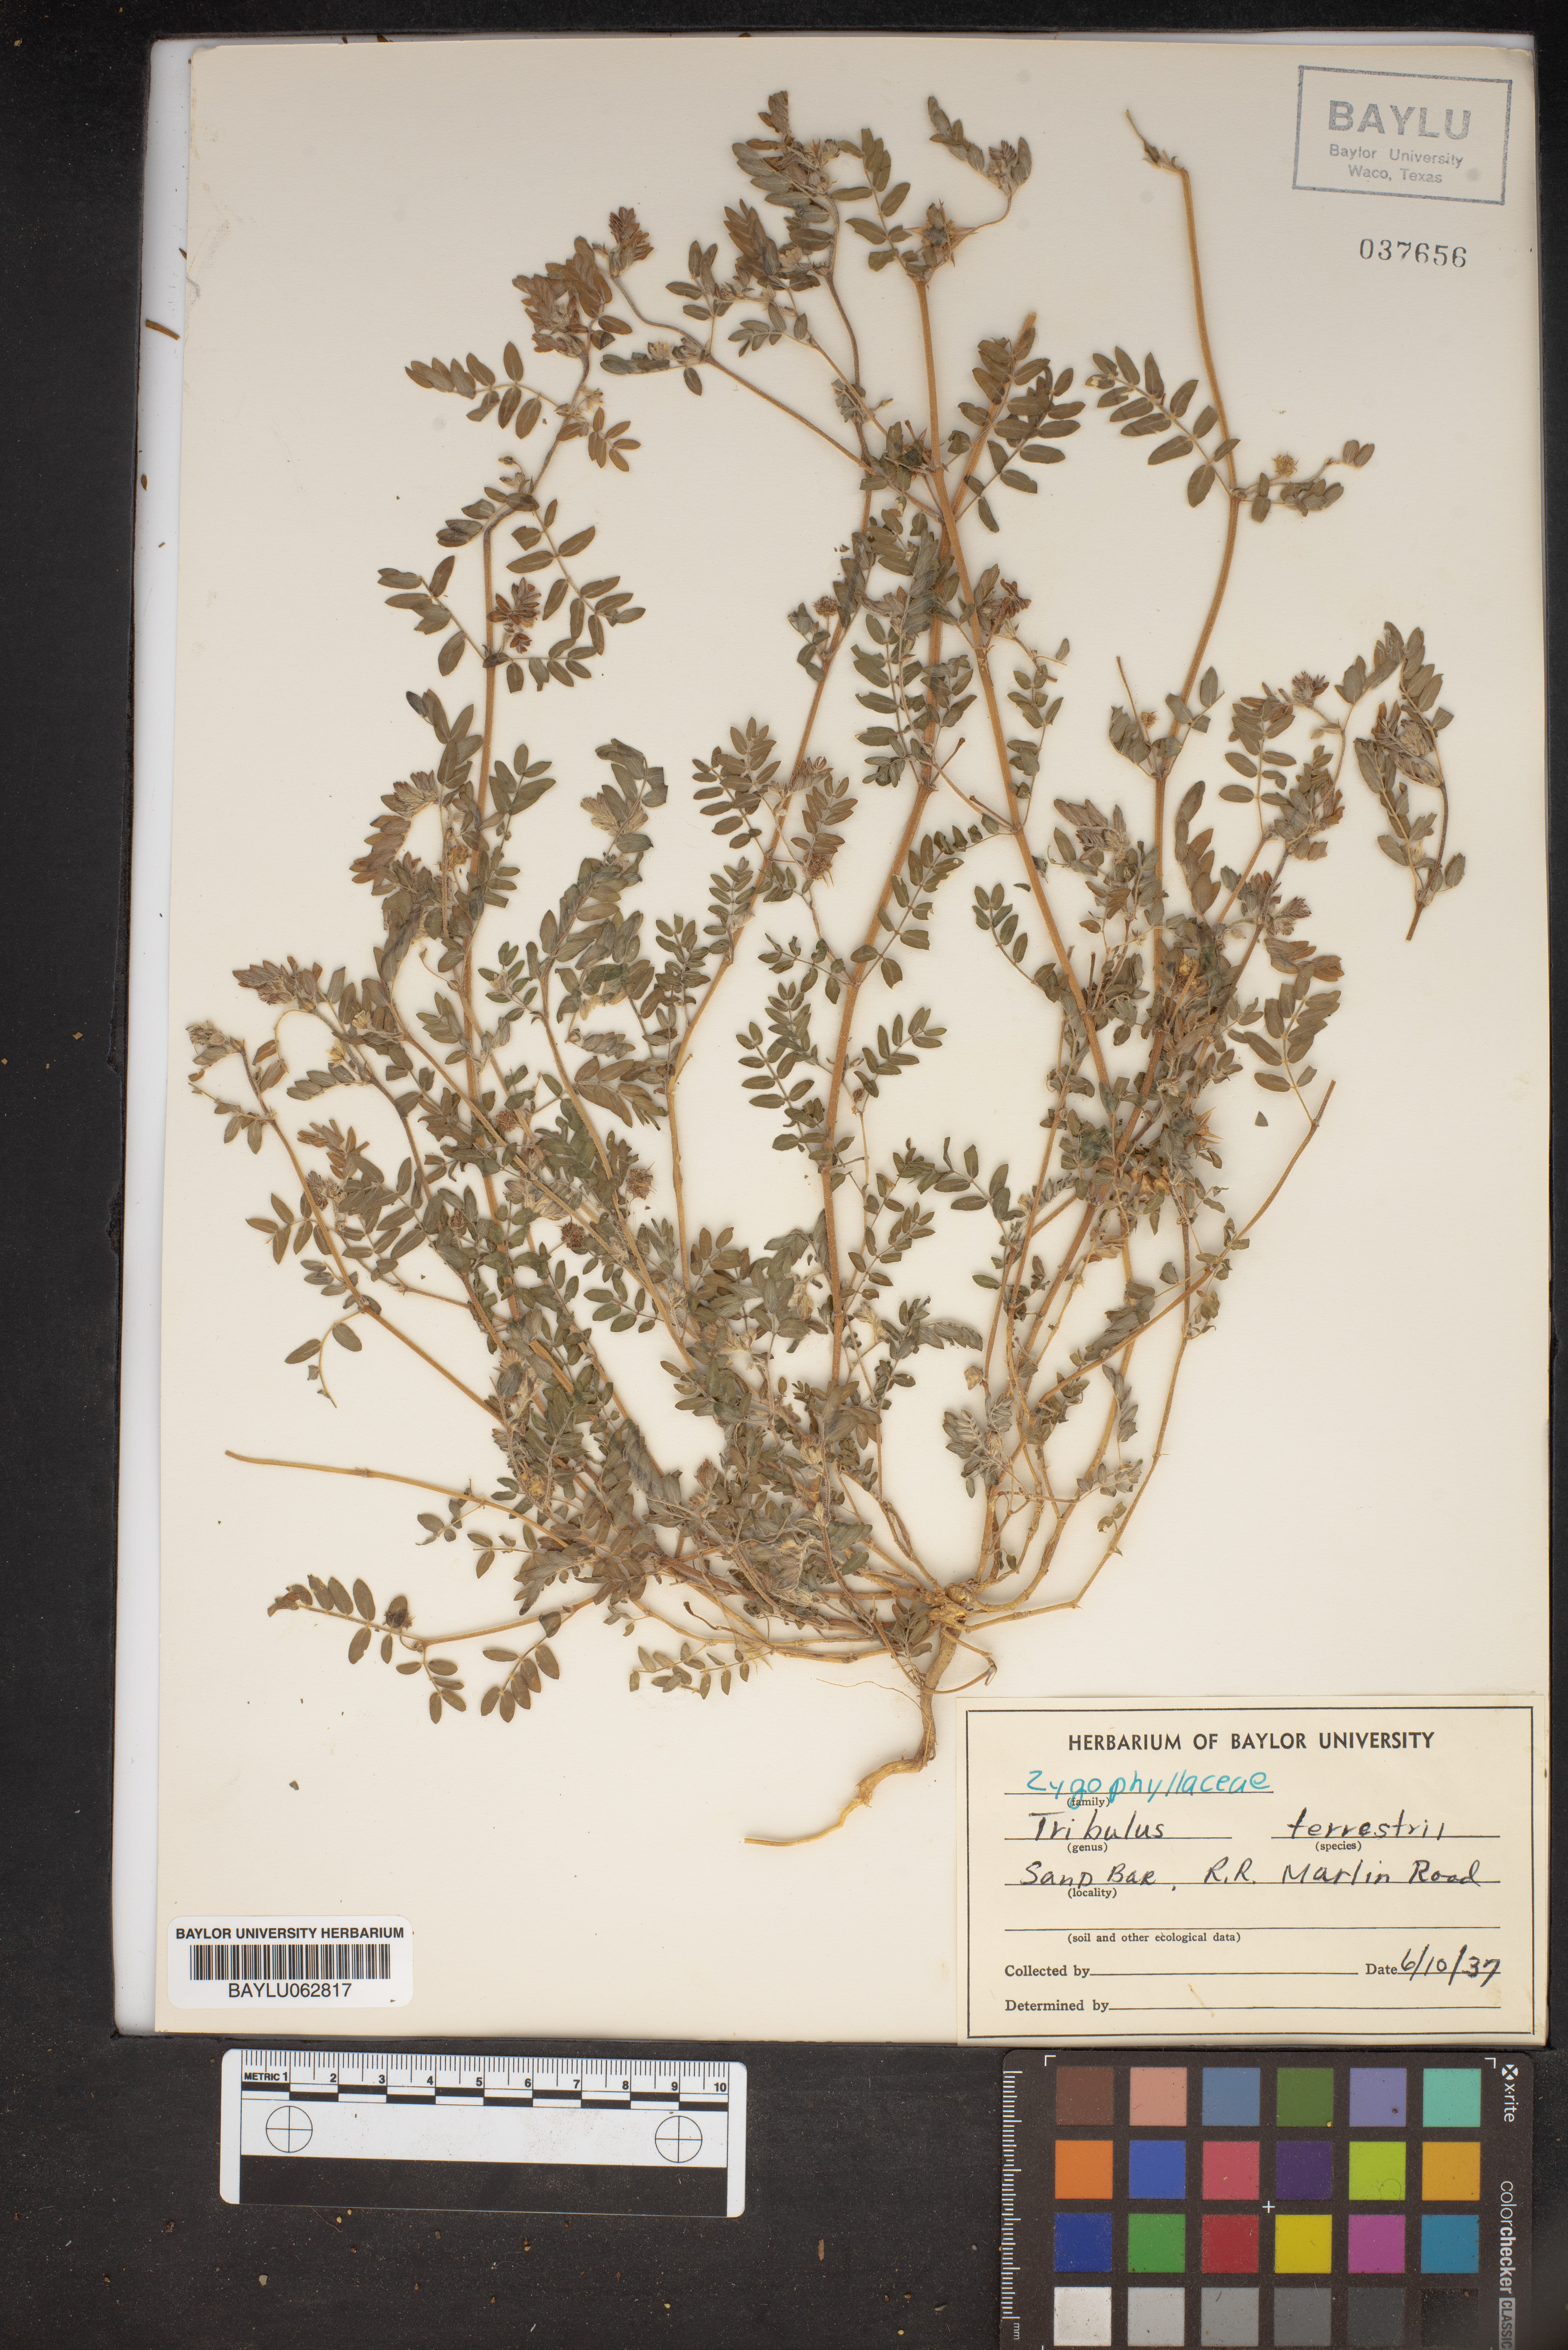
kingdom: Plantae
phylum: Tracheophyta
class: Magnoliopsida
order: Zygophyllales
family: Zygophyllaceae
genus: Tribulus
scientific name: Tribulus terrestris
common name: Puncturevine
